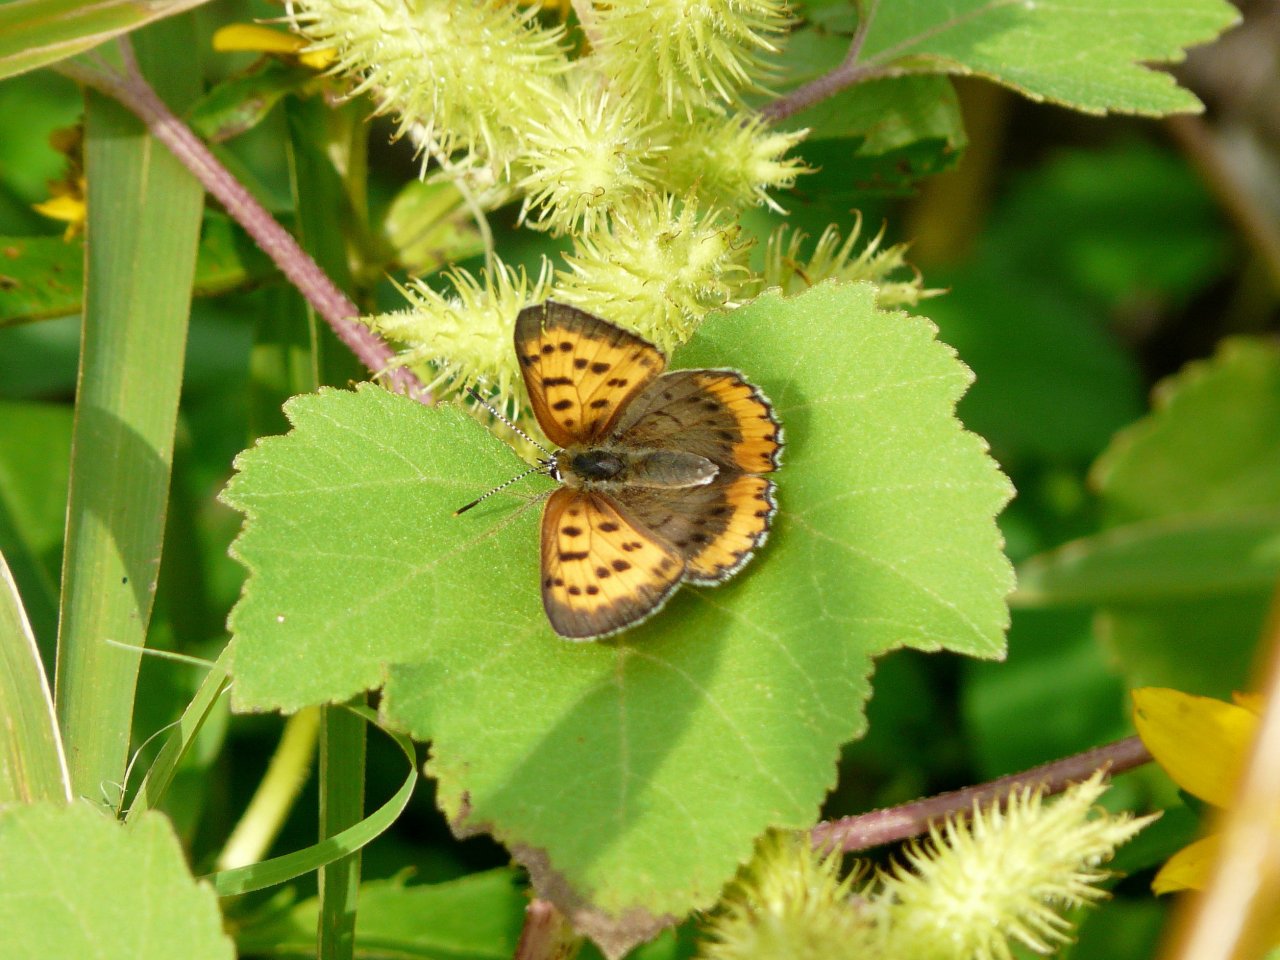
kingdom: Animalia
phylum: Arthropoda
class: Insecta
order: Lepidoptera
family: Sesiidae
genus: Sesia
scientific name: Sesia Lycaena hyllus
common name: Bronze Copper
